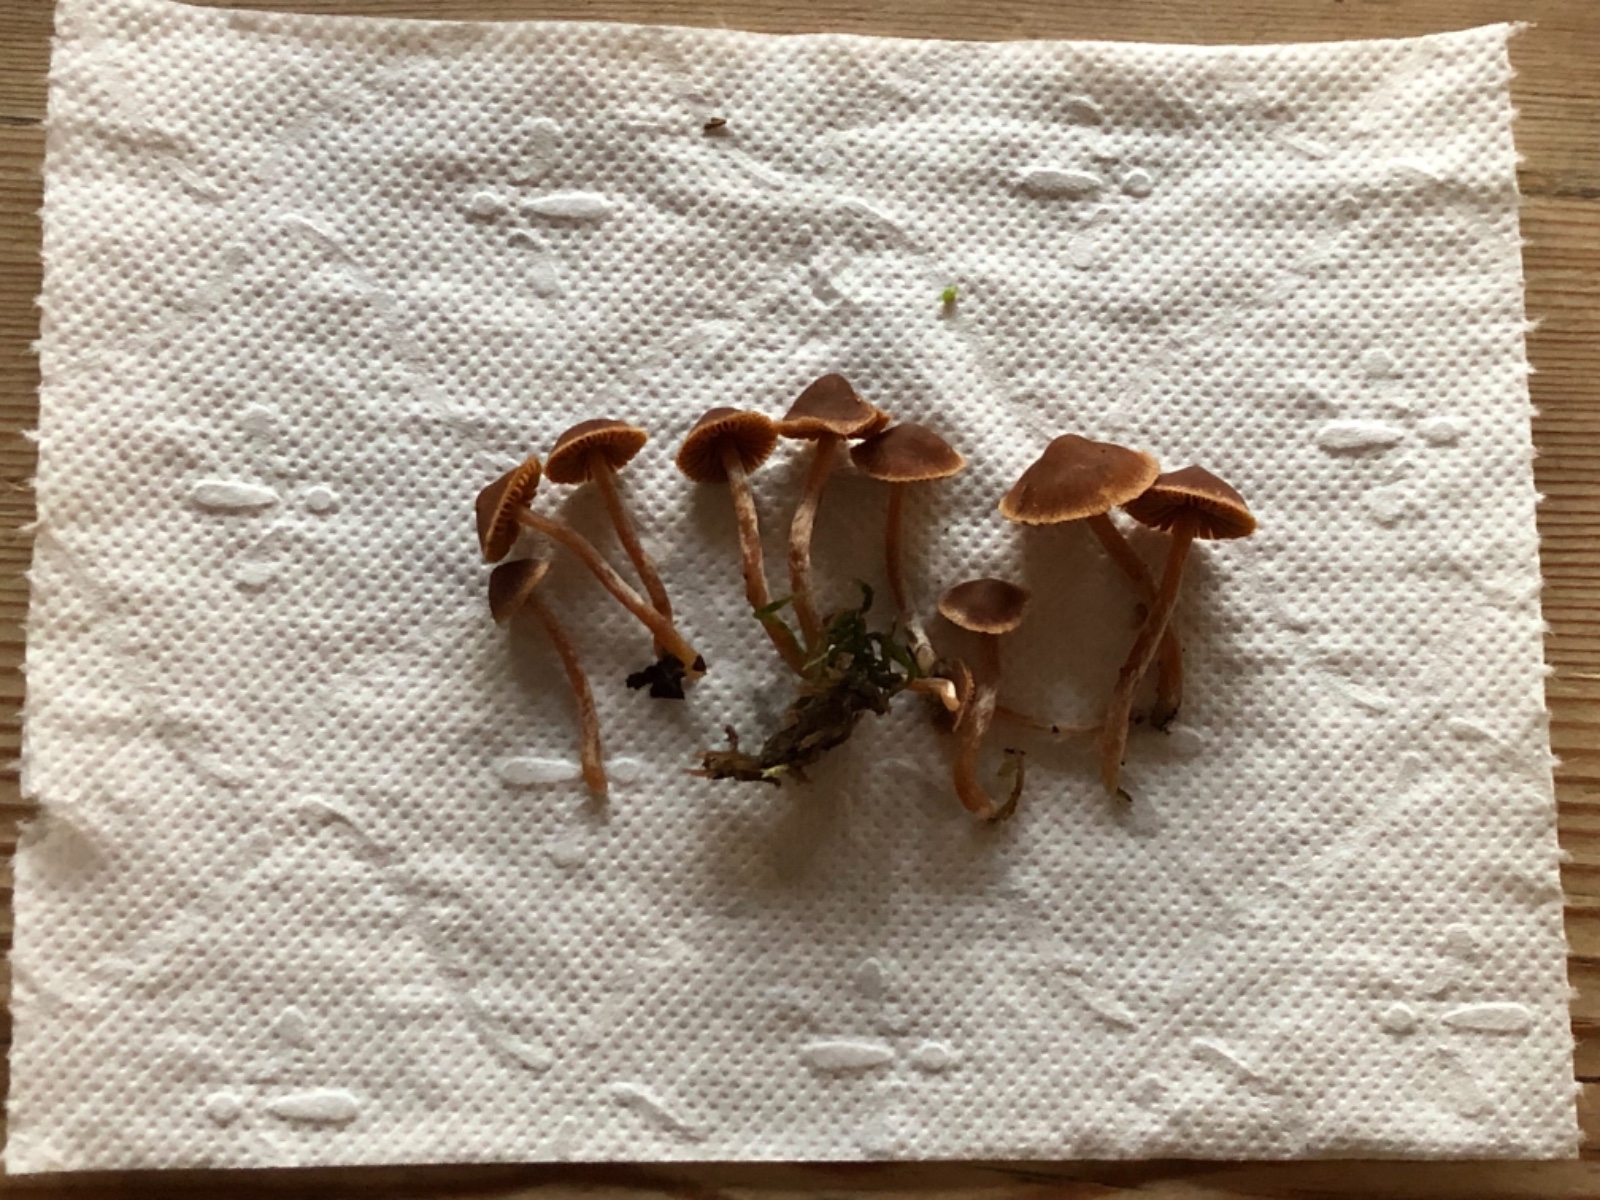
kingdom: Fungi
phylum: Basidiomycota
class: Agaricomycetes
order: Agaricales
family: Cortinariaceae
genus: Cortinarius
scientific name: Cortinarius acutus
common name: Peaked webcap
